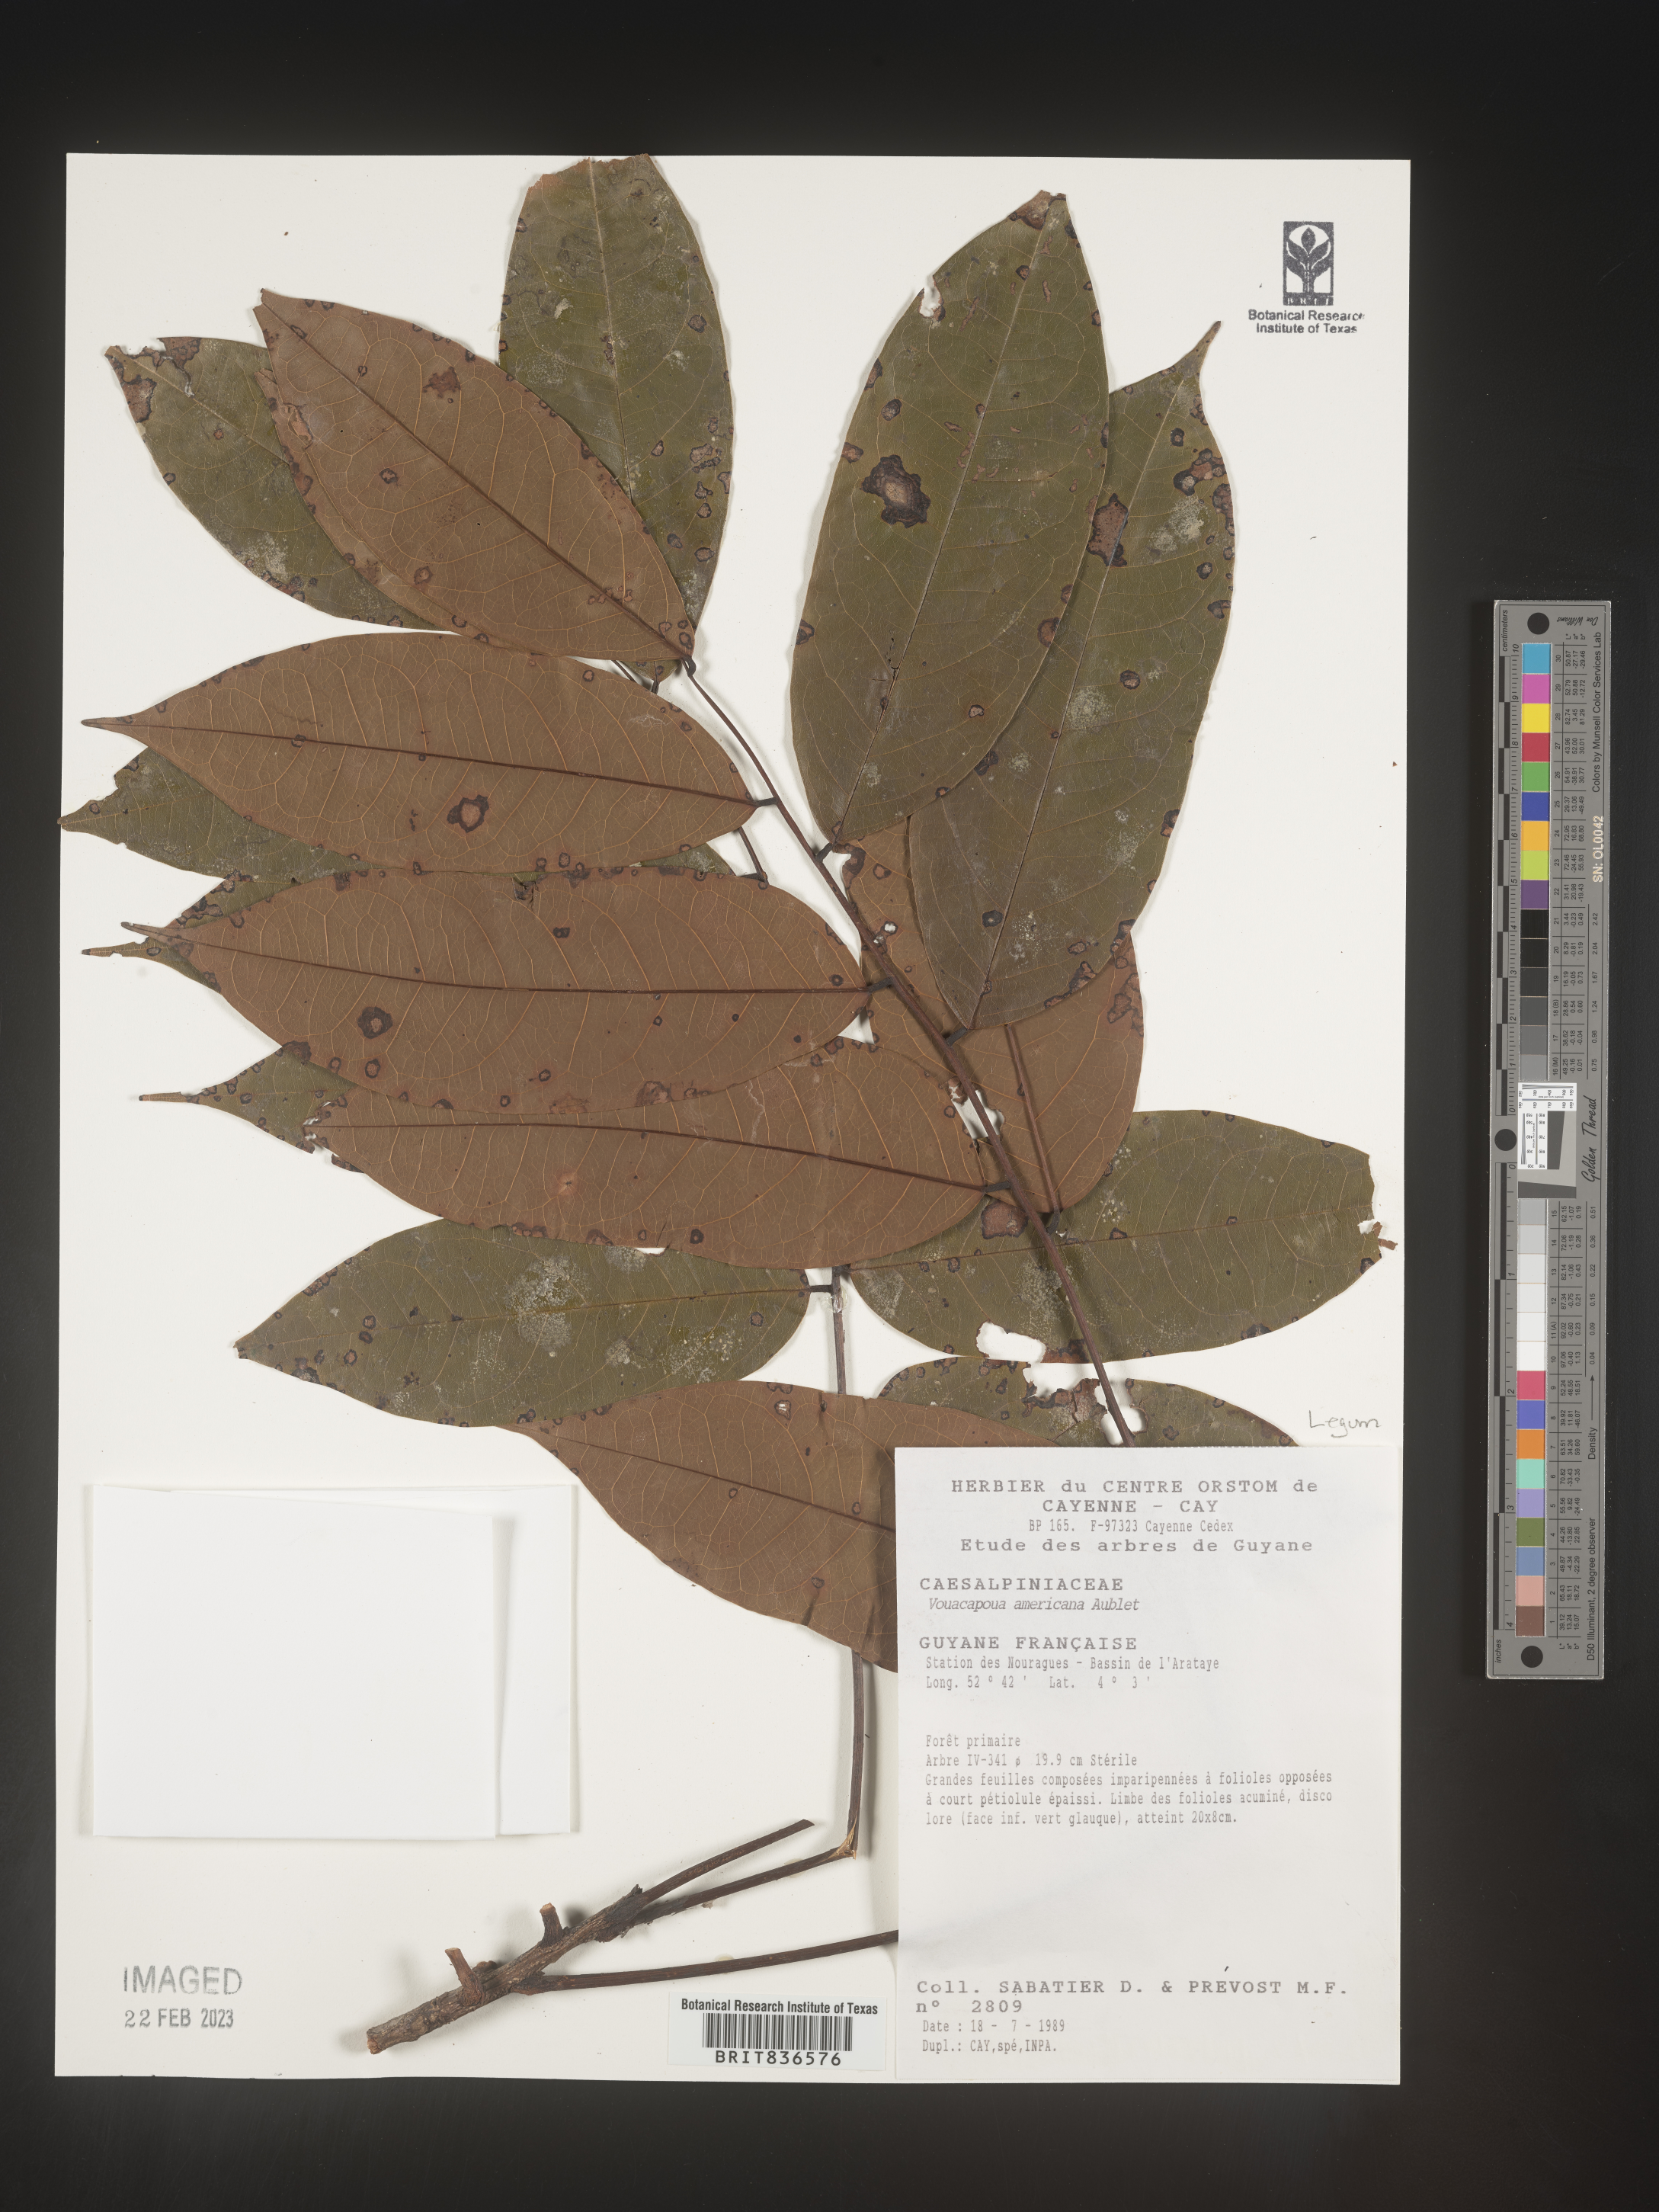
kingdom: Plantae
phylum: Tracheophyta
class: Magnoliopsida
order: Fabales
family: Fabaceae
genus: Vouacapoua
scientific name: Vouacapoua
